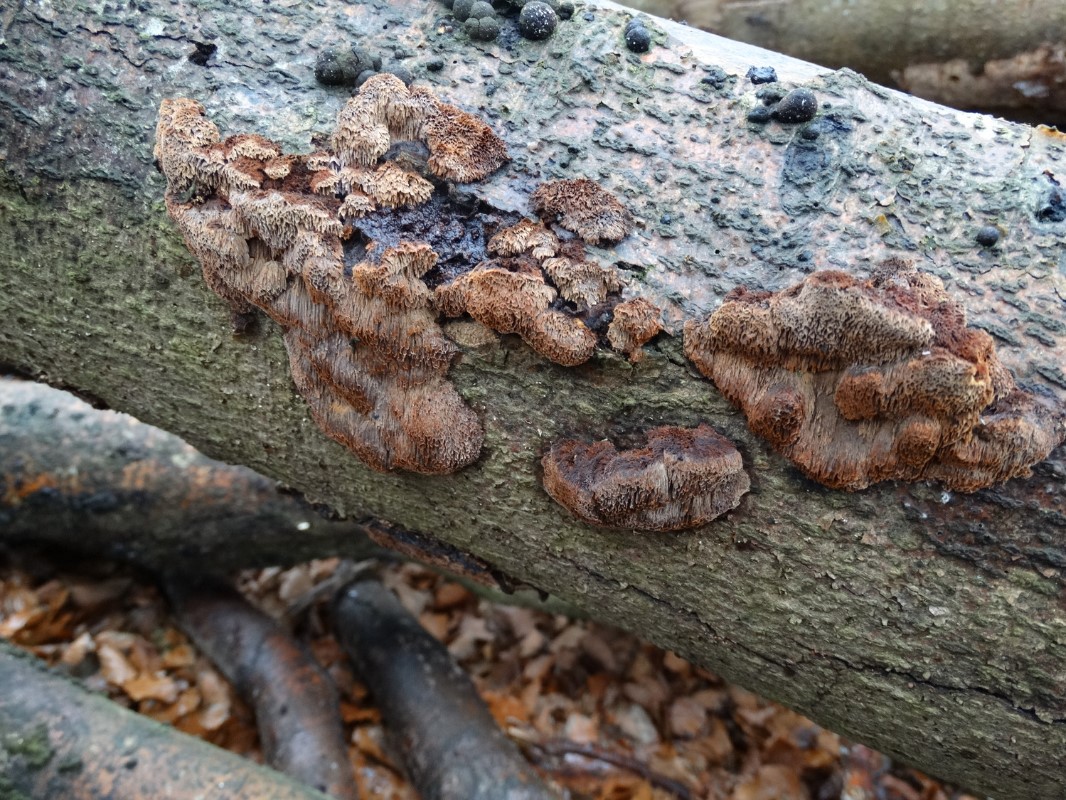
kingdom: Fungi
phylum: Basidiomycota
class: Agaricomycetes
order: Hymenochaetales
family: Hymenochaetaceae
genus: Mensularia
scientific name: Mensularia nodulosa
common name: bøge-spejlporesvamp
